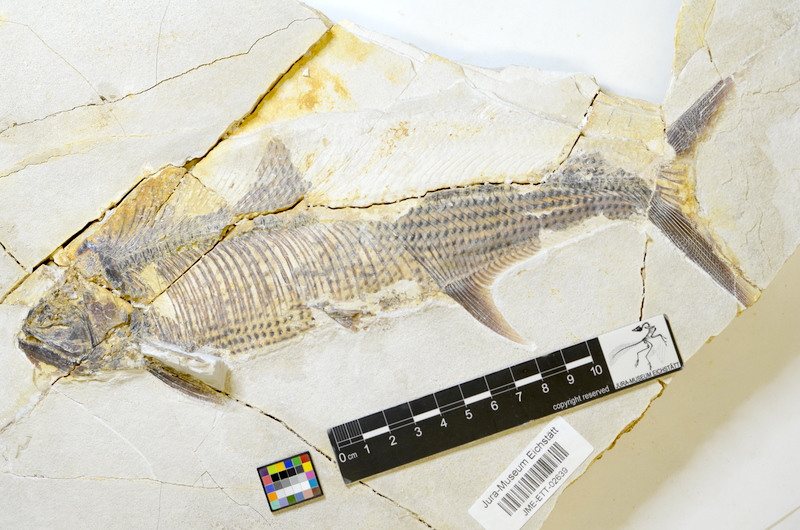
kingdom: Animalia
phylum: Chordata
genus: Thrissops
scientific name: Thrissops formosus
